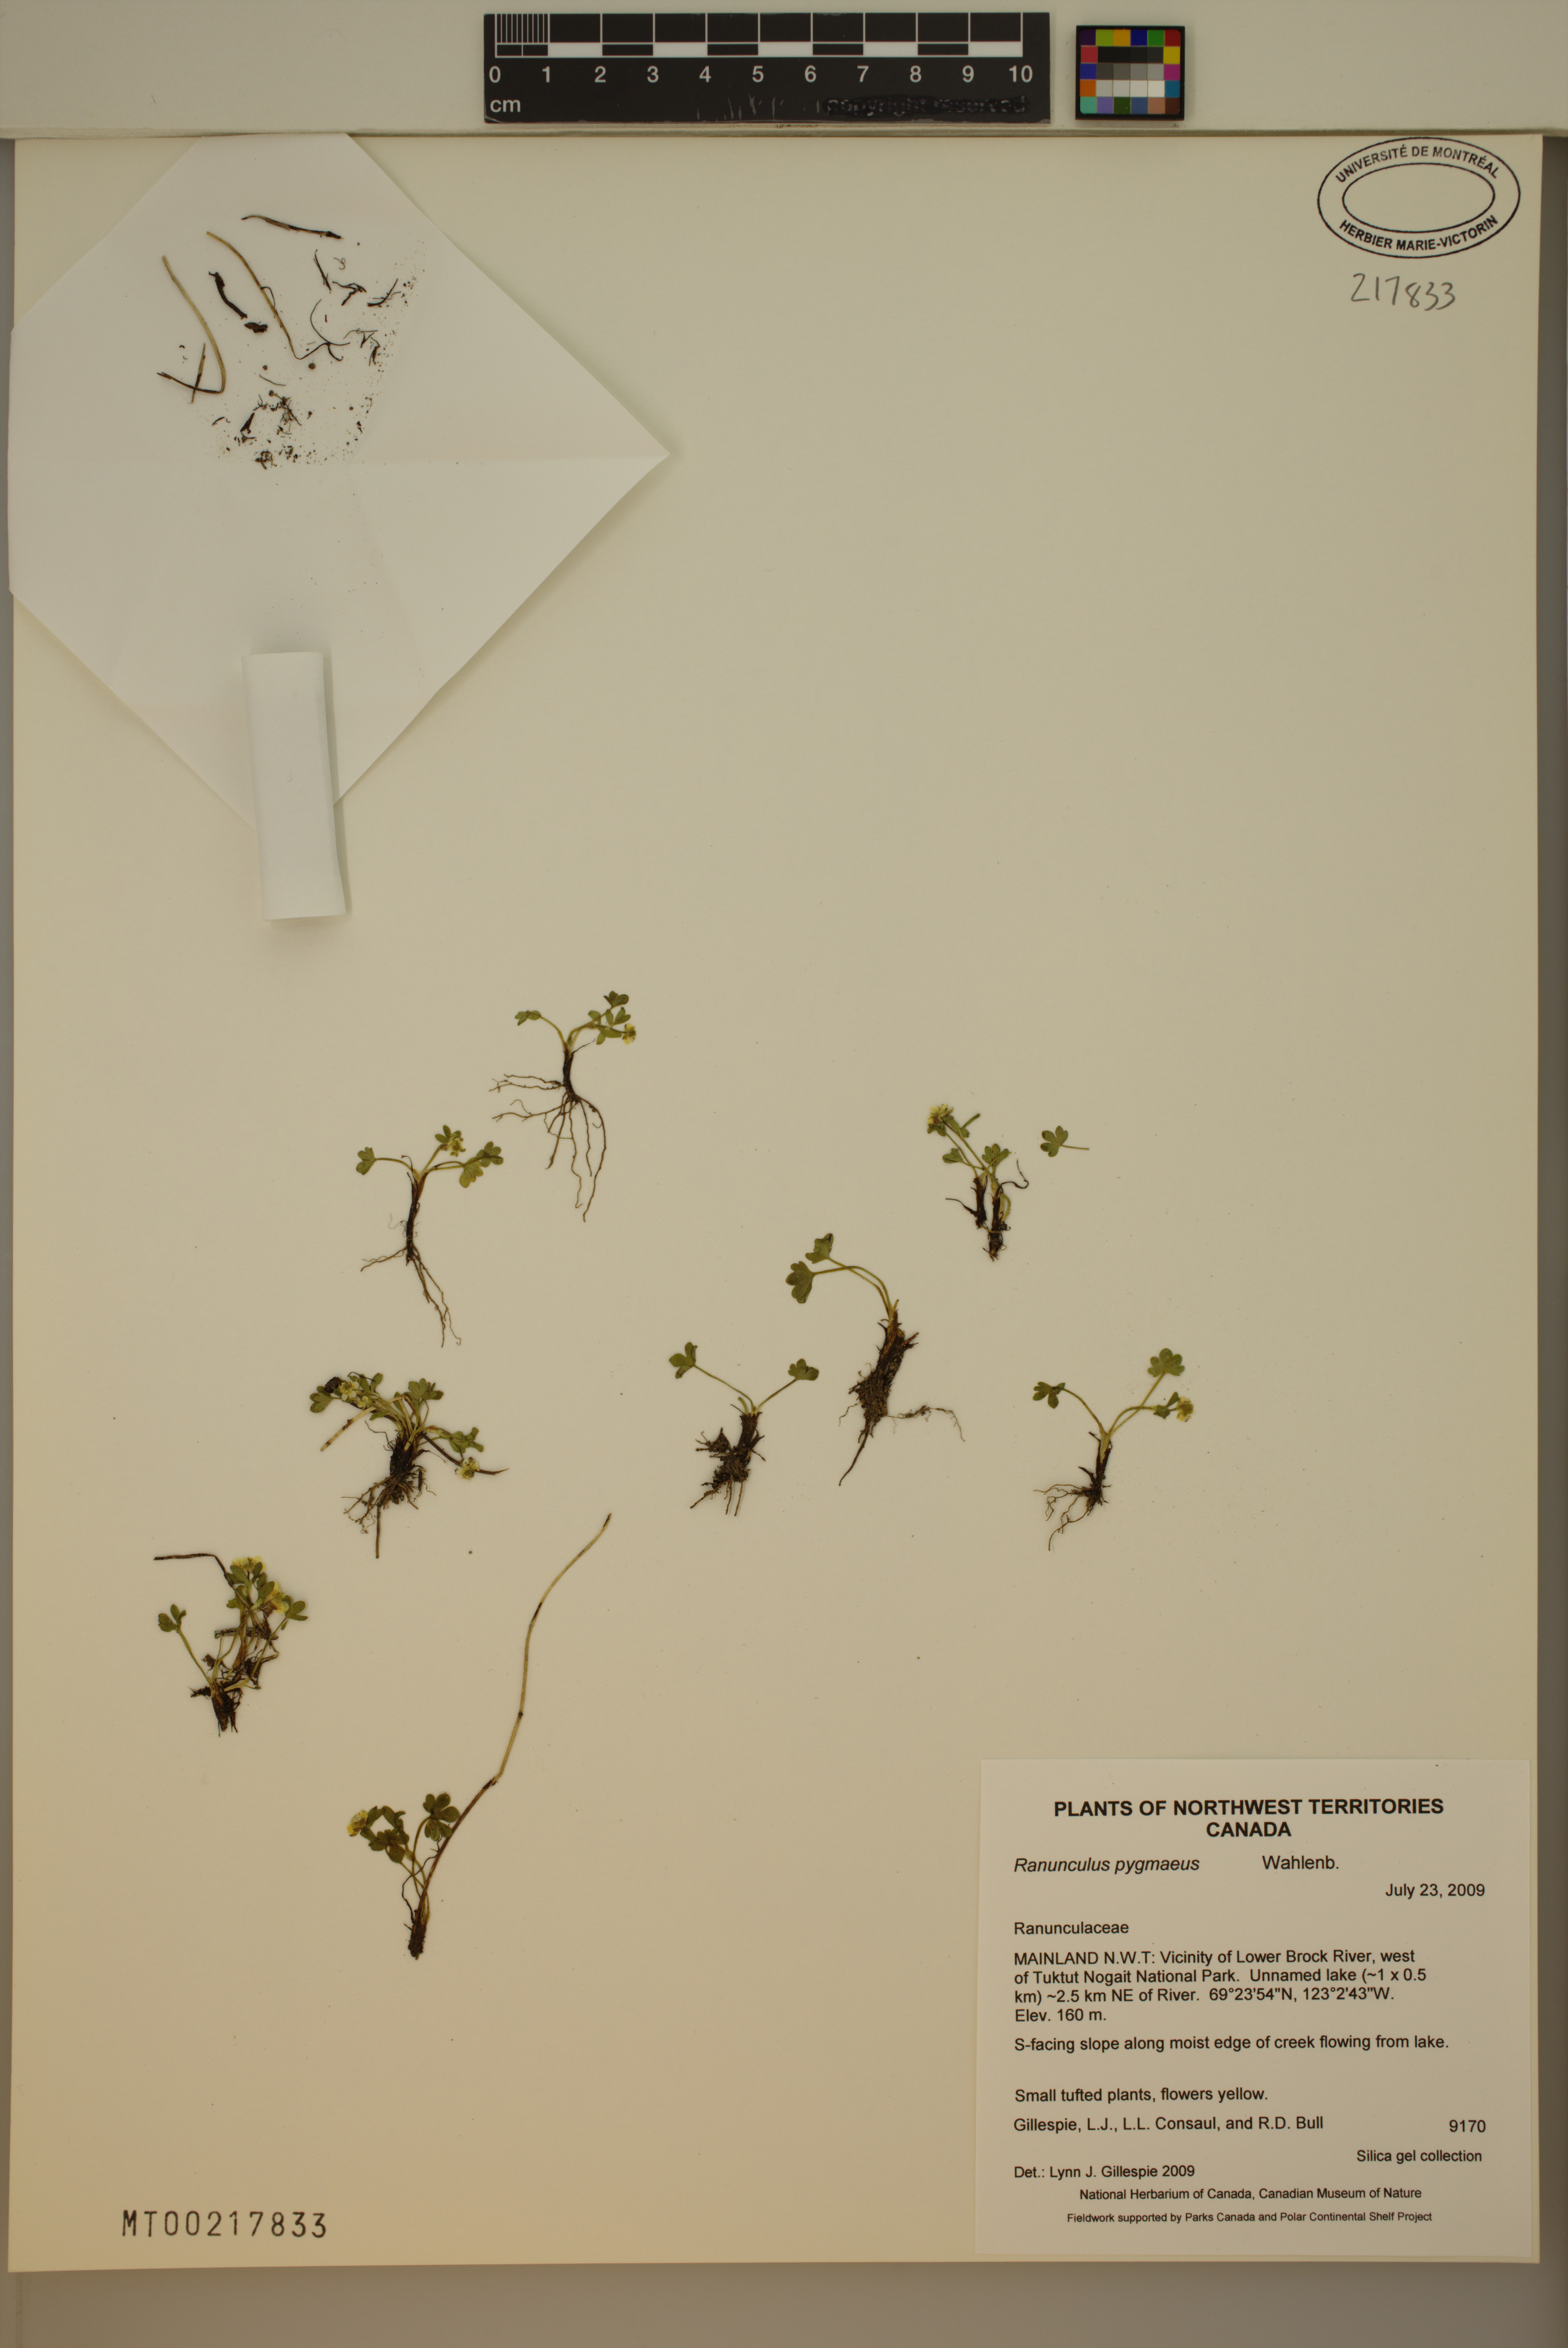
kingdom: Plantae
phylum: Tracheophyta
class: Magnoliopsida
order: Ranunculales
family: Ranunculaceae
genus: Ranunculus
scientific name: Ranunculus pygmaeus
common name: Dwarf buttercup
